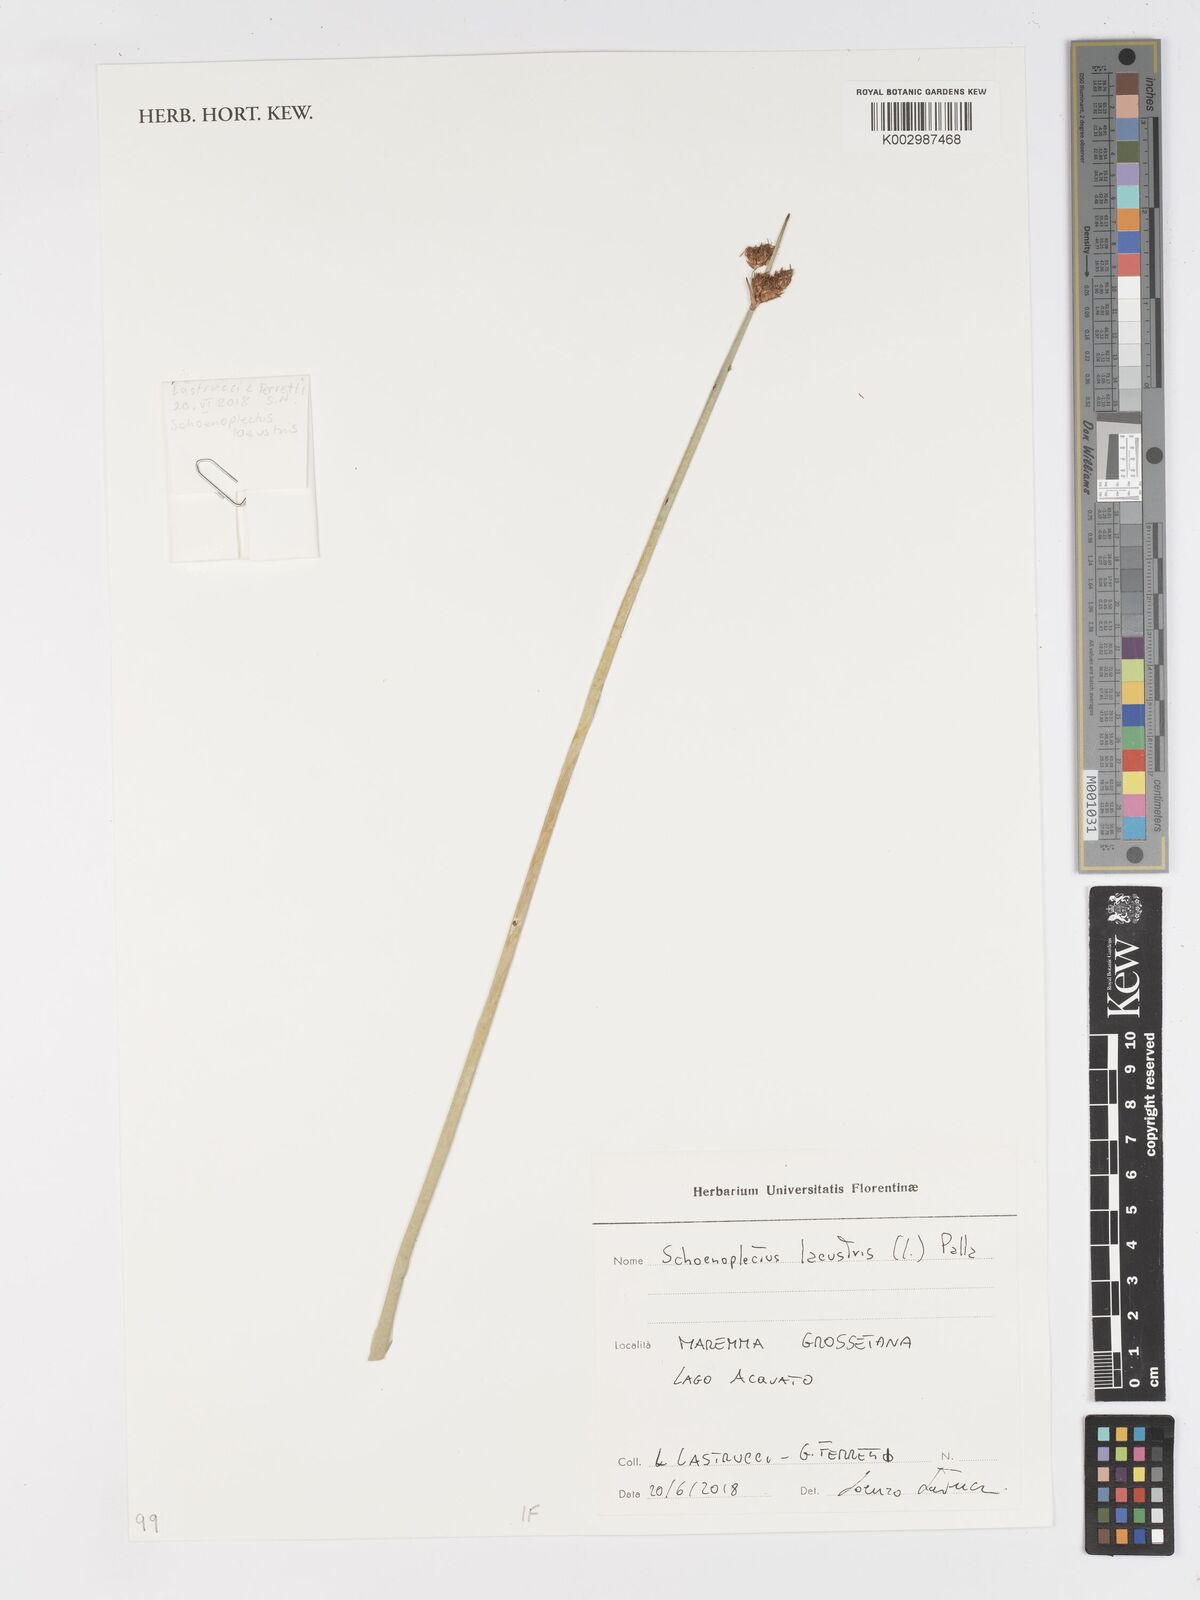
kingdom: Plantae
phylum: Tracheophyta
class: Liliopsida
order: Poales
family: Cyperaceae
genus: Schoenoplectus
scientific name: Schoenoplectus lacustris
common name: Common club-rush
